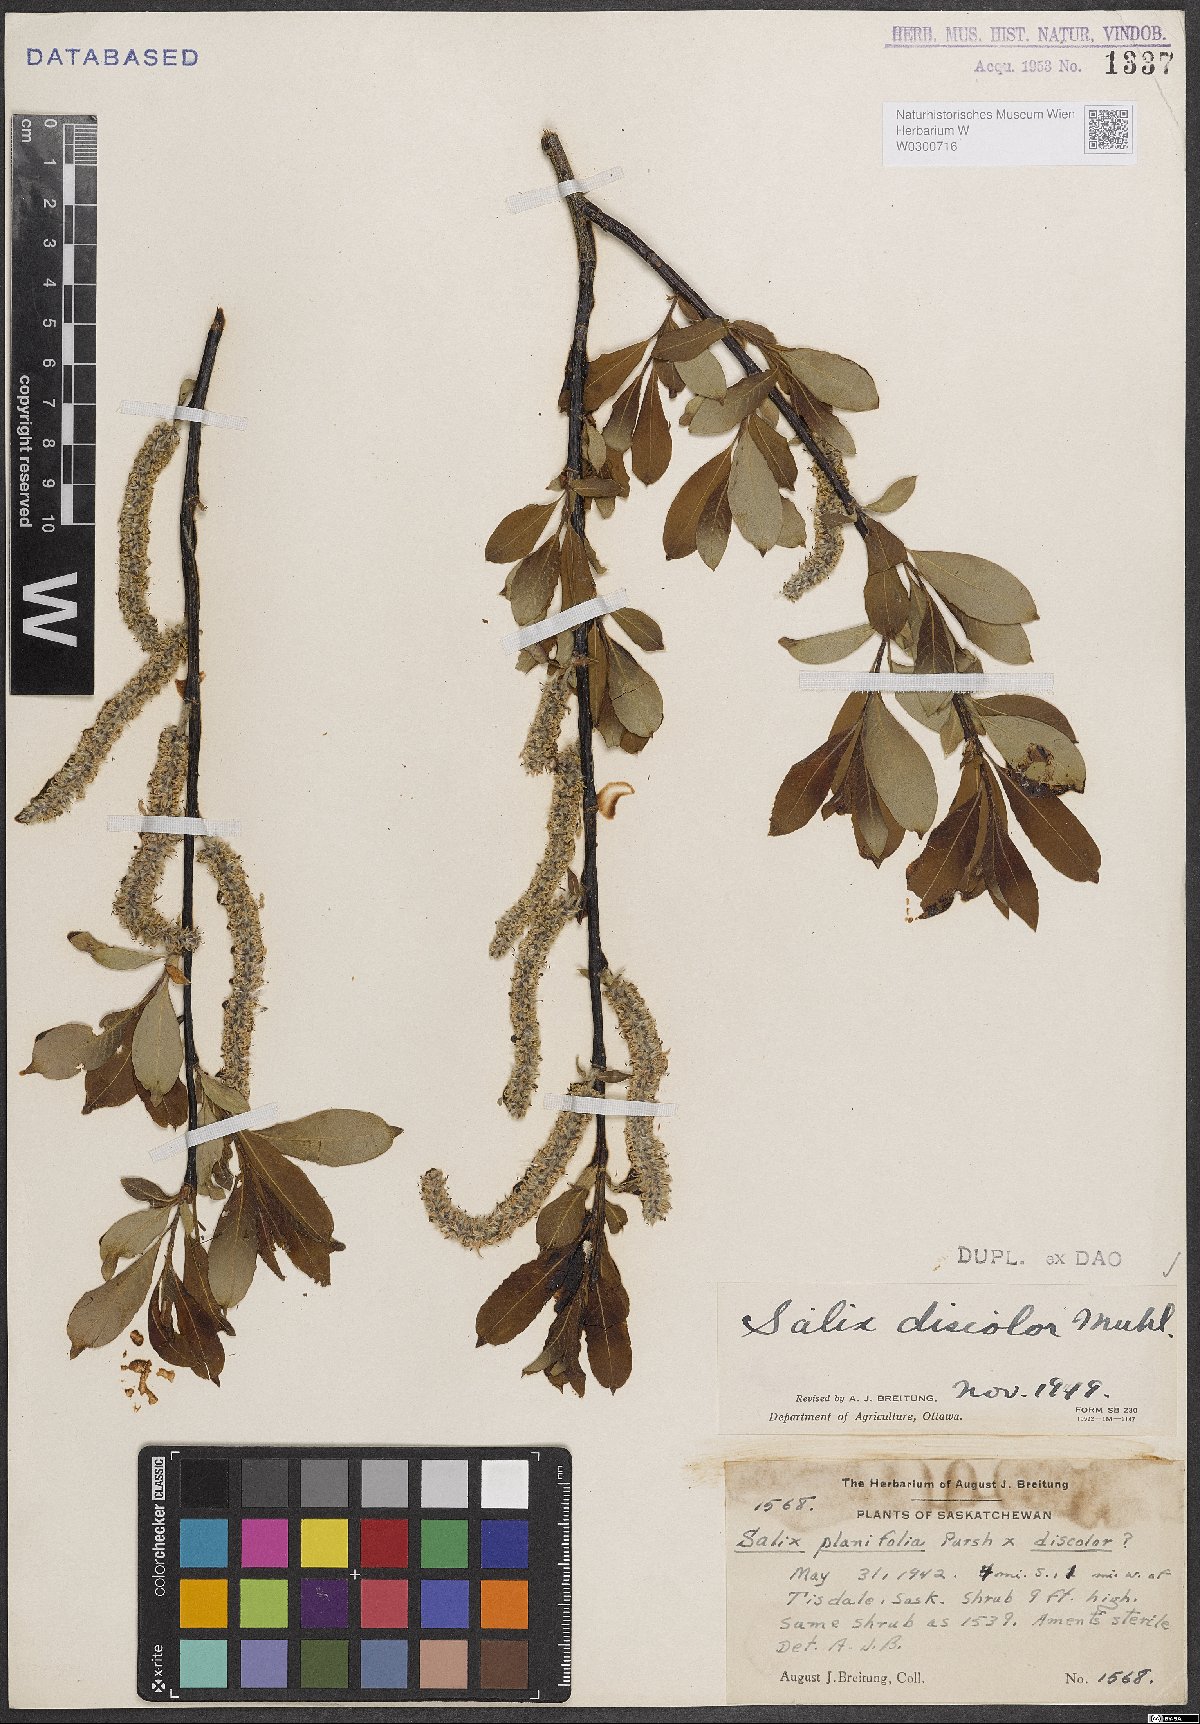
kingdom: Plantae
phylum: Tracheophyta
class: Magnoliopsida
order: Malpighiales
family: Salicaceae
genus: Salix
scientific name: Salix discolor
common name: Glaucous willow
